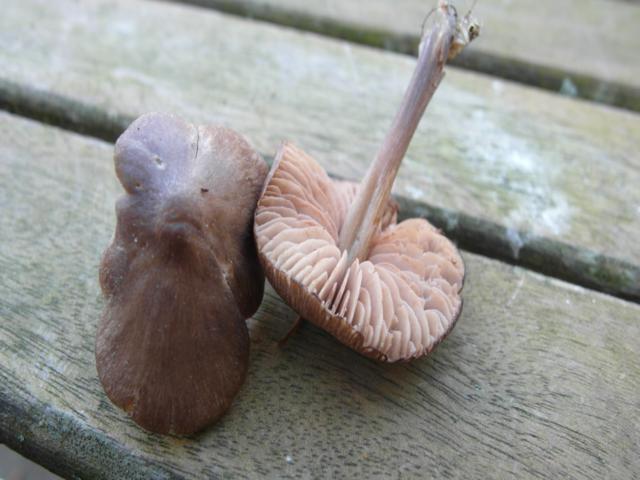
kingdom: Fungi
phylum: Basidiomycota
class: Agaricomycetes
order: Agaricales
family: Entolomataceae
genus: Entoloma
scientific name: Entoloma vernum
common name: vår-rødblad
